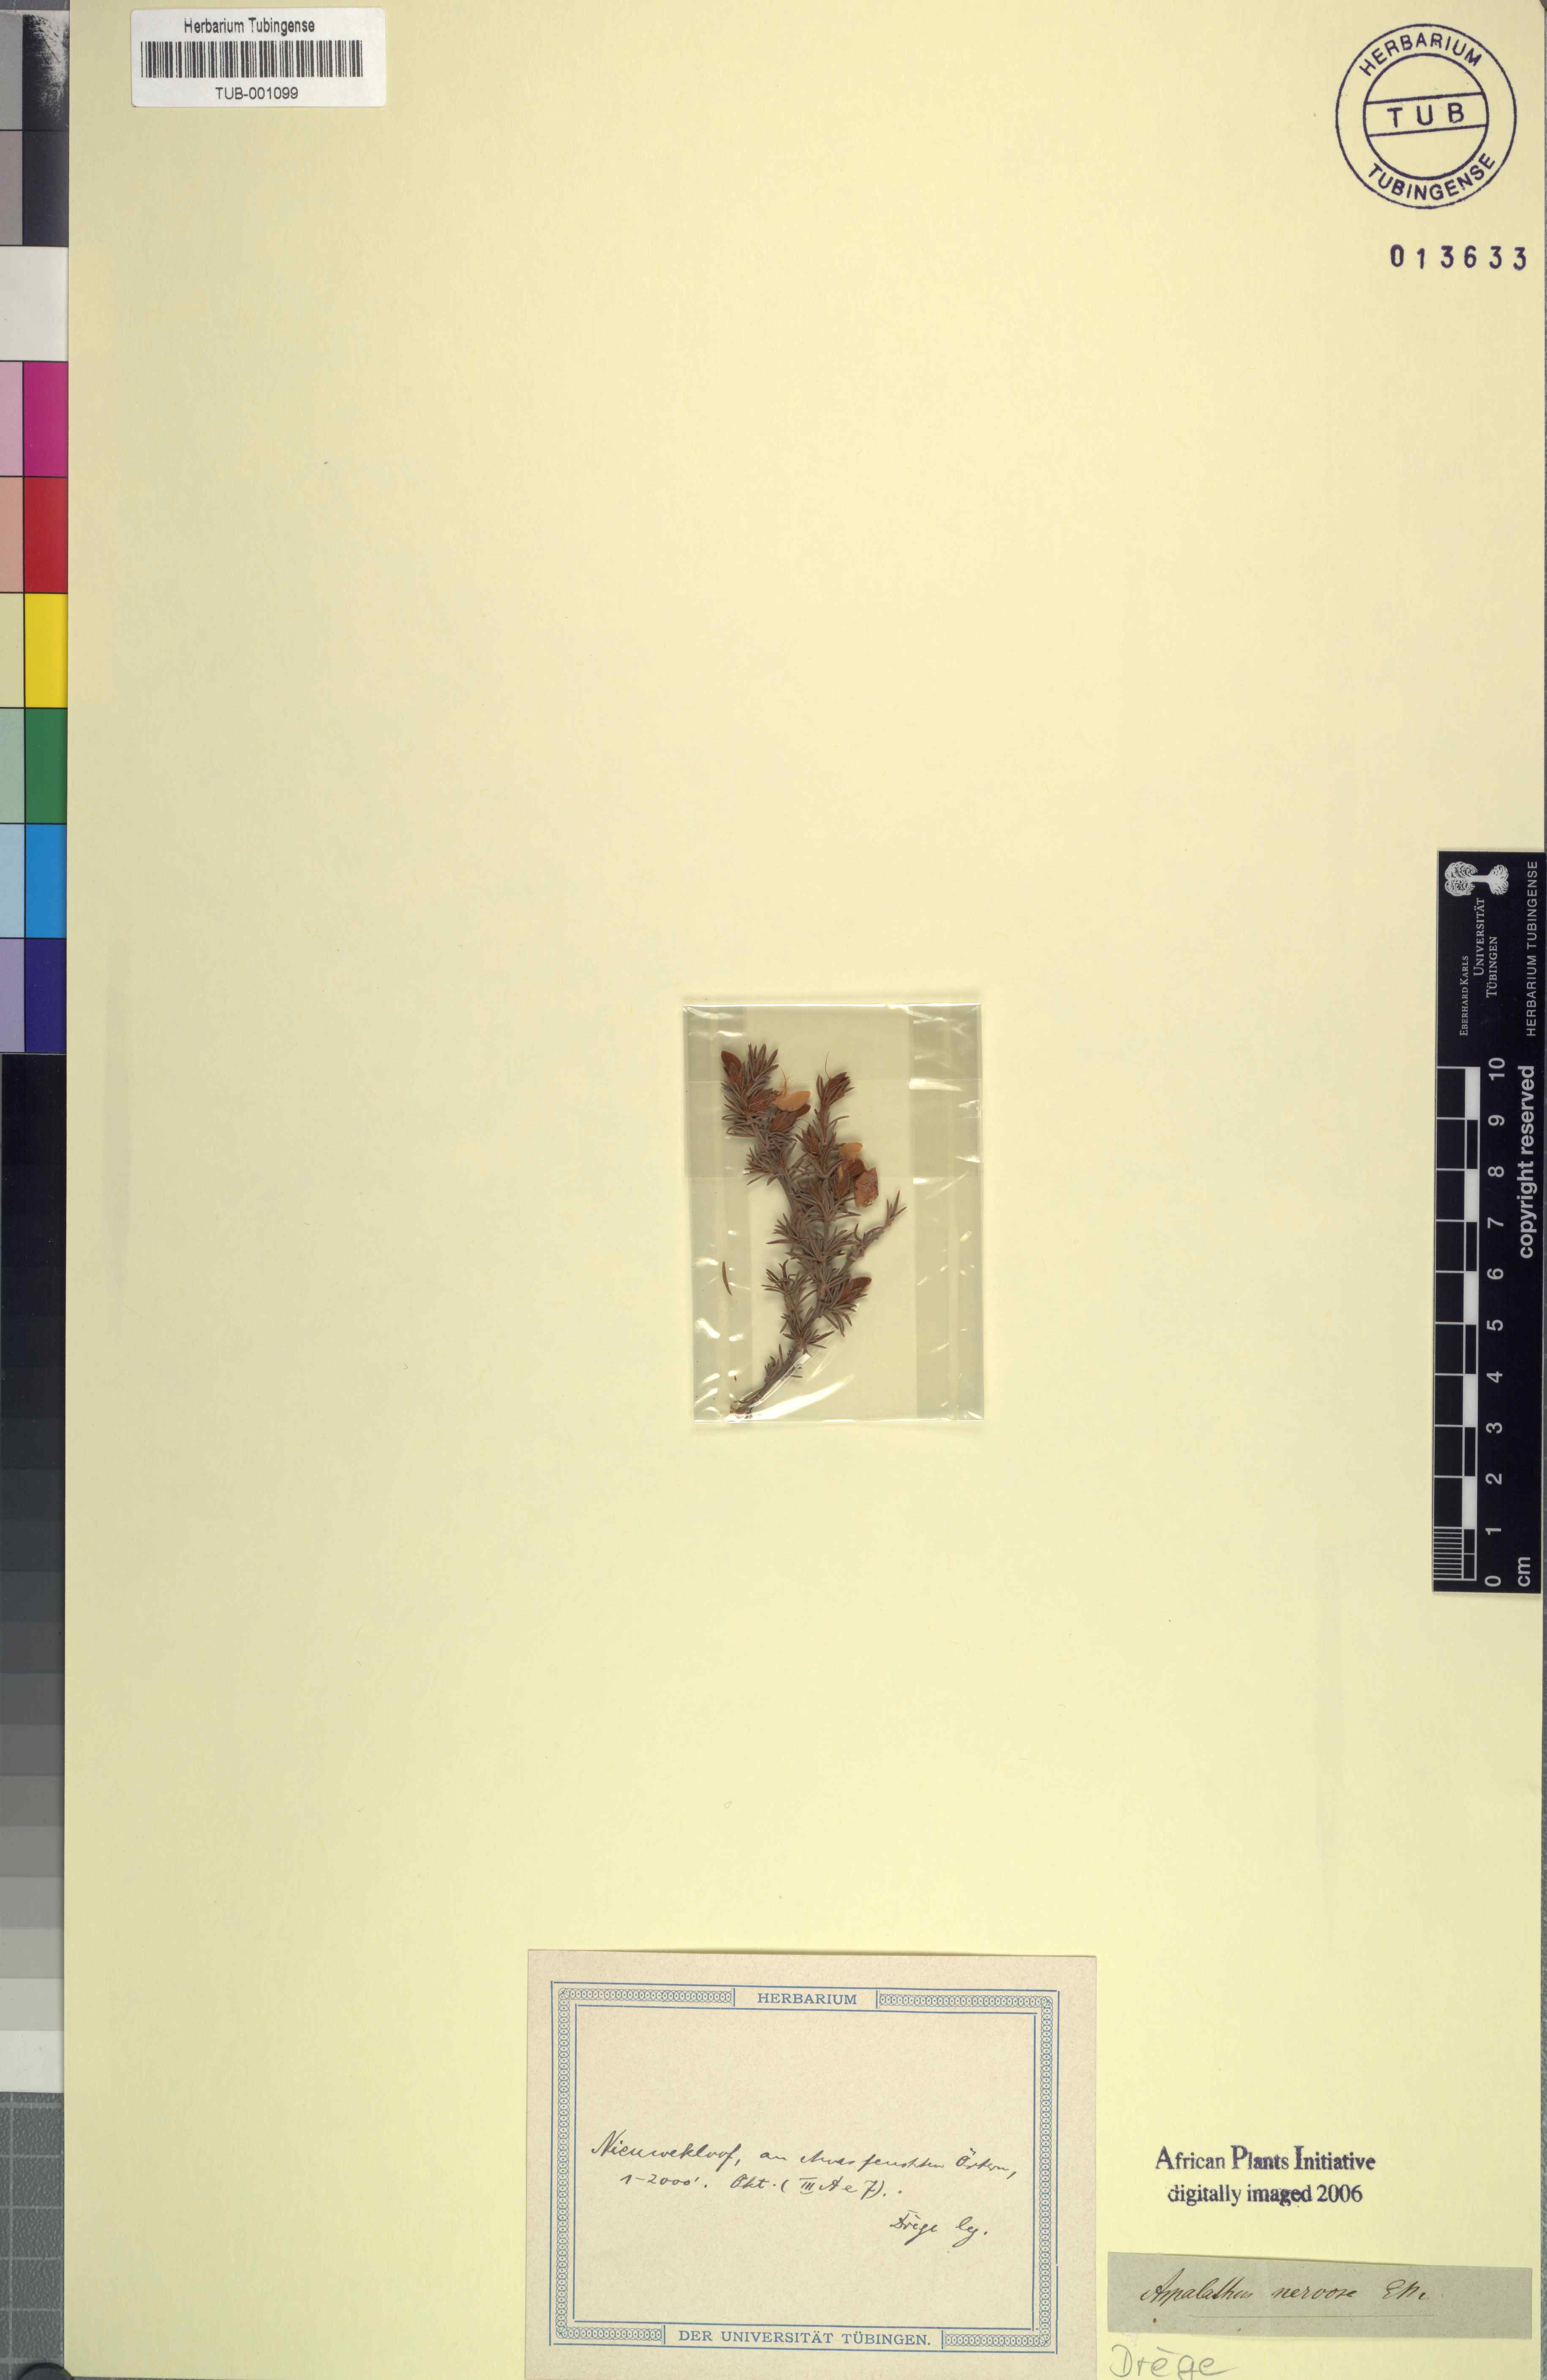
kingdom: Plantae
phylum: Tracheophyta
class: Magnoliopsida
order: Fabales
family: Fabaceae
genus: Aspalathus
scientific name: Aspalathus spicata
